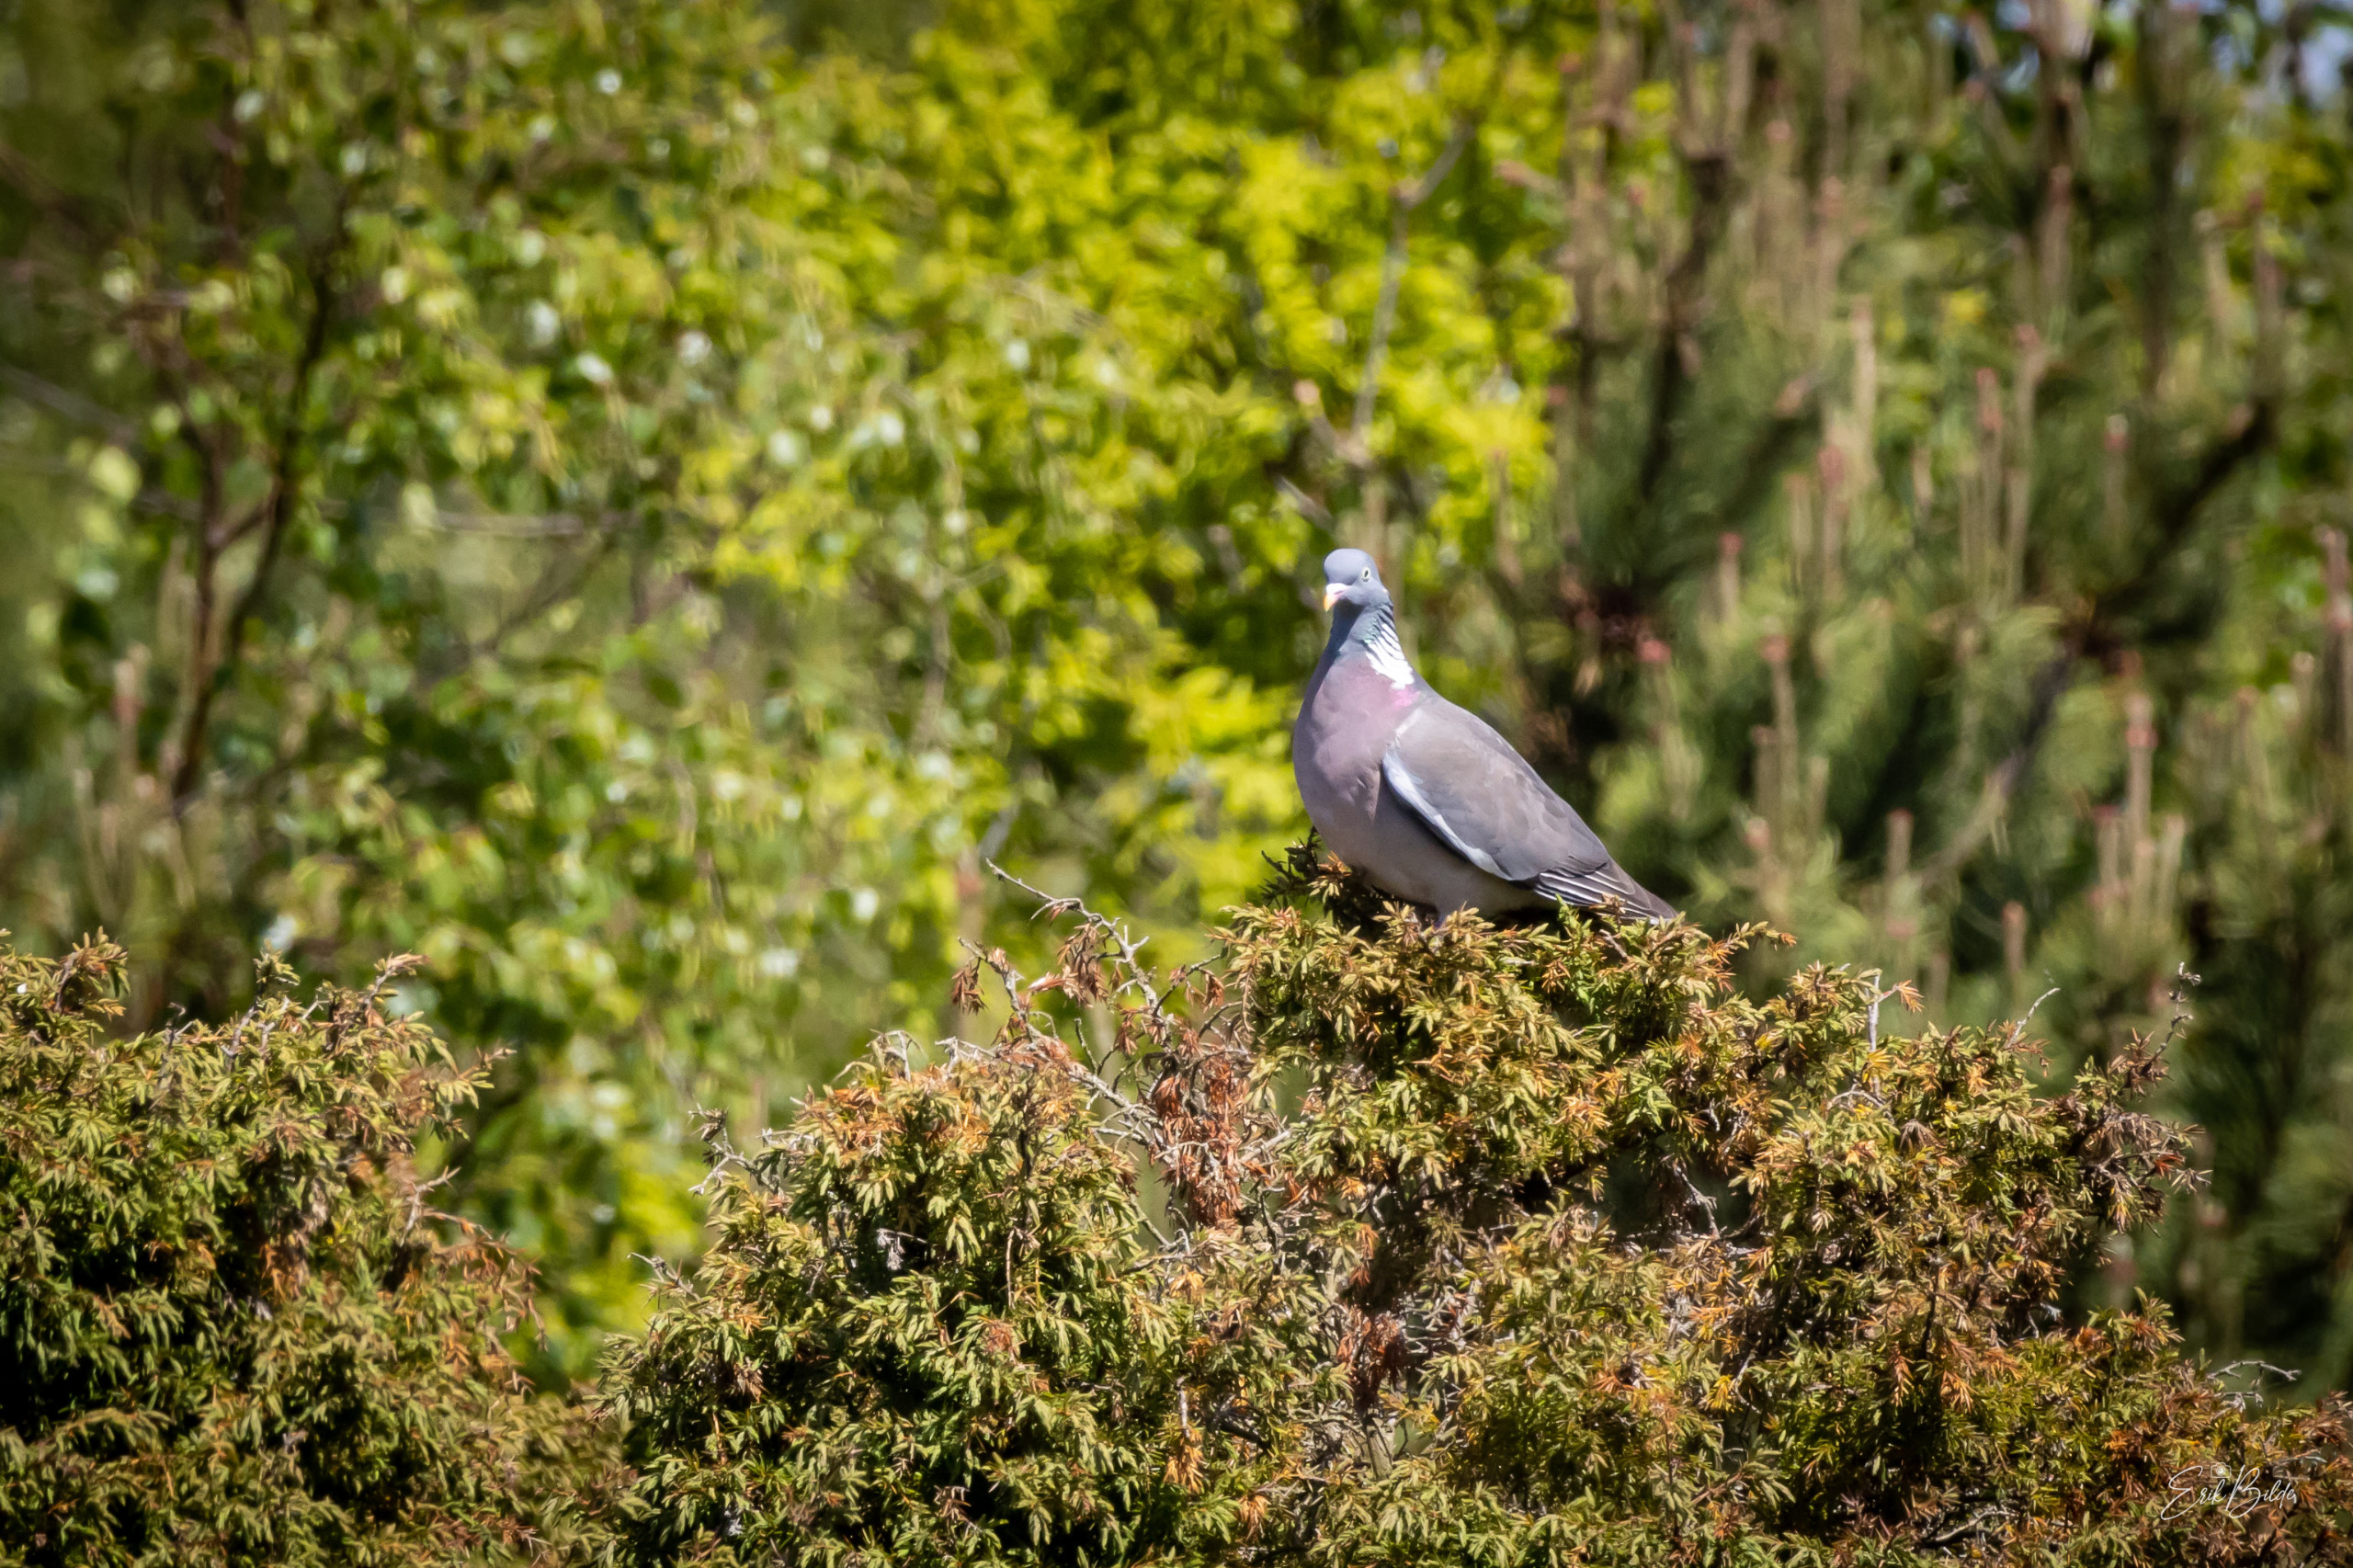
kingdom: Animalia
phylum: Chordata
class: Aves
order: Columbiformes
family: Columbidae
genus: Columba
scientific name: Columba palumbus
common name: Ringdue
